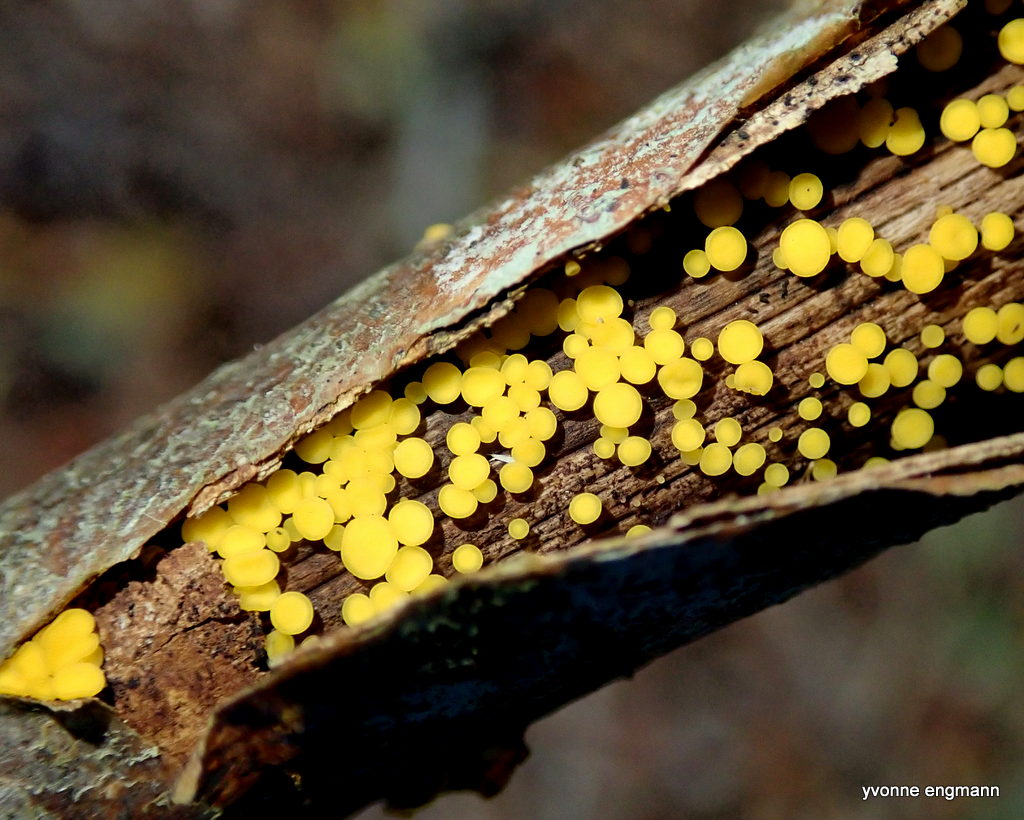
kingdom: Fungi
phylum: Ascomycota
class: Leotiomycetes
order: Helotiales
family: Pezizellaceae
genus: Calycina
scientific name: Calycina citrina
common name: almindelig gulskive
